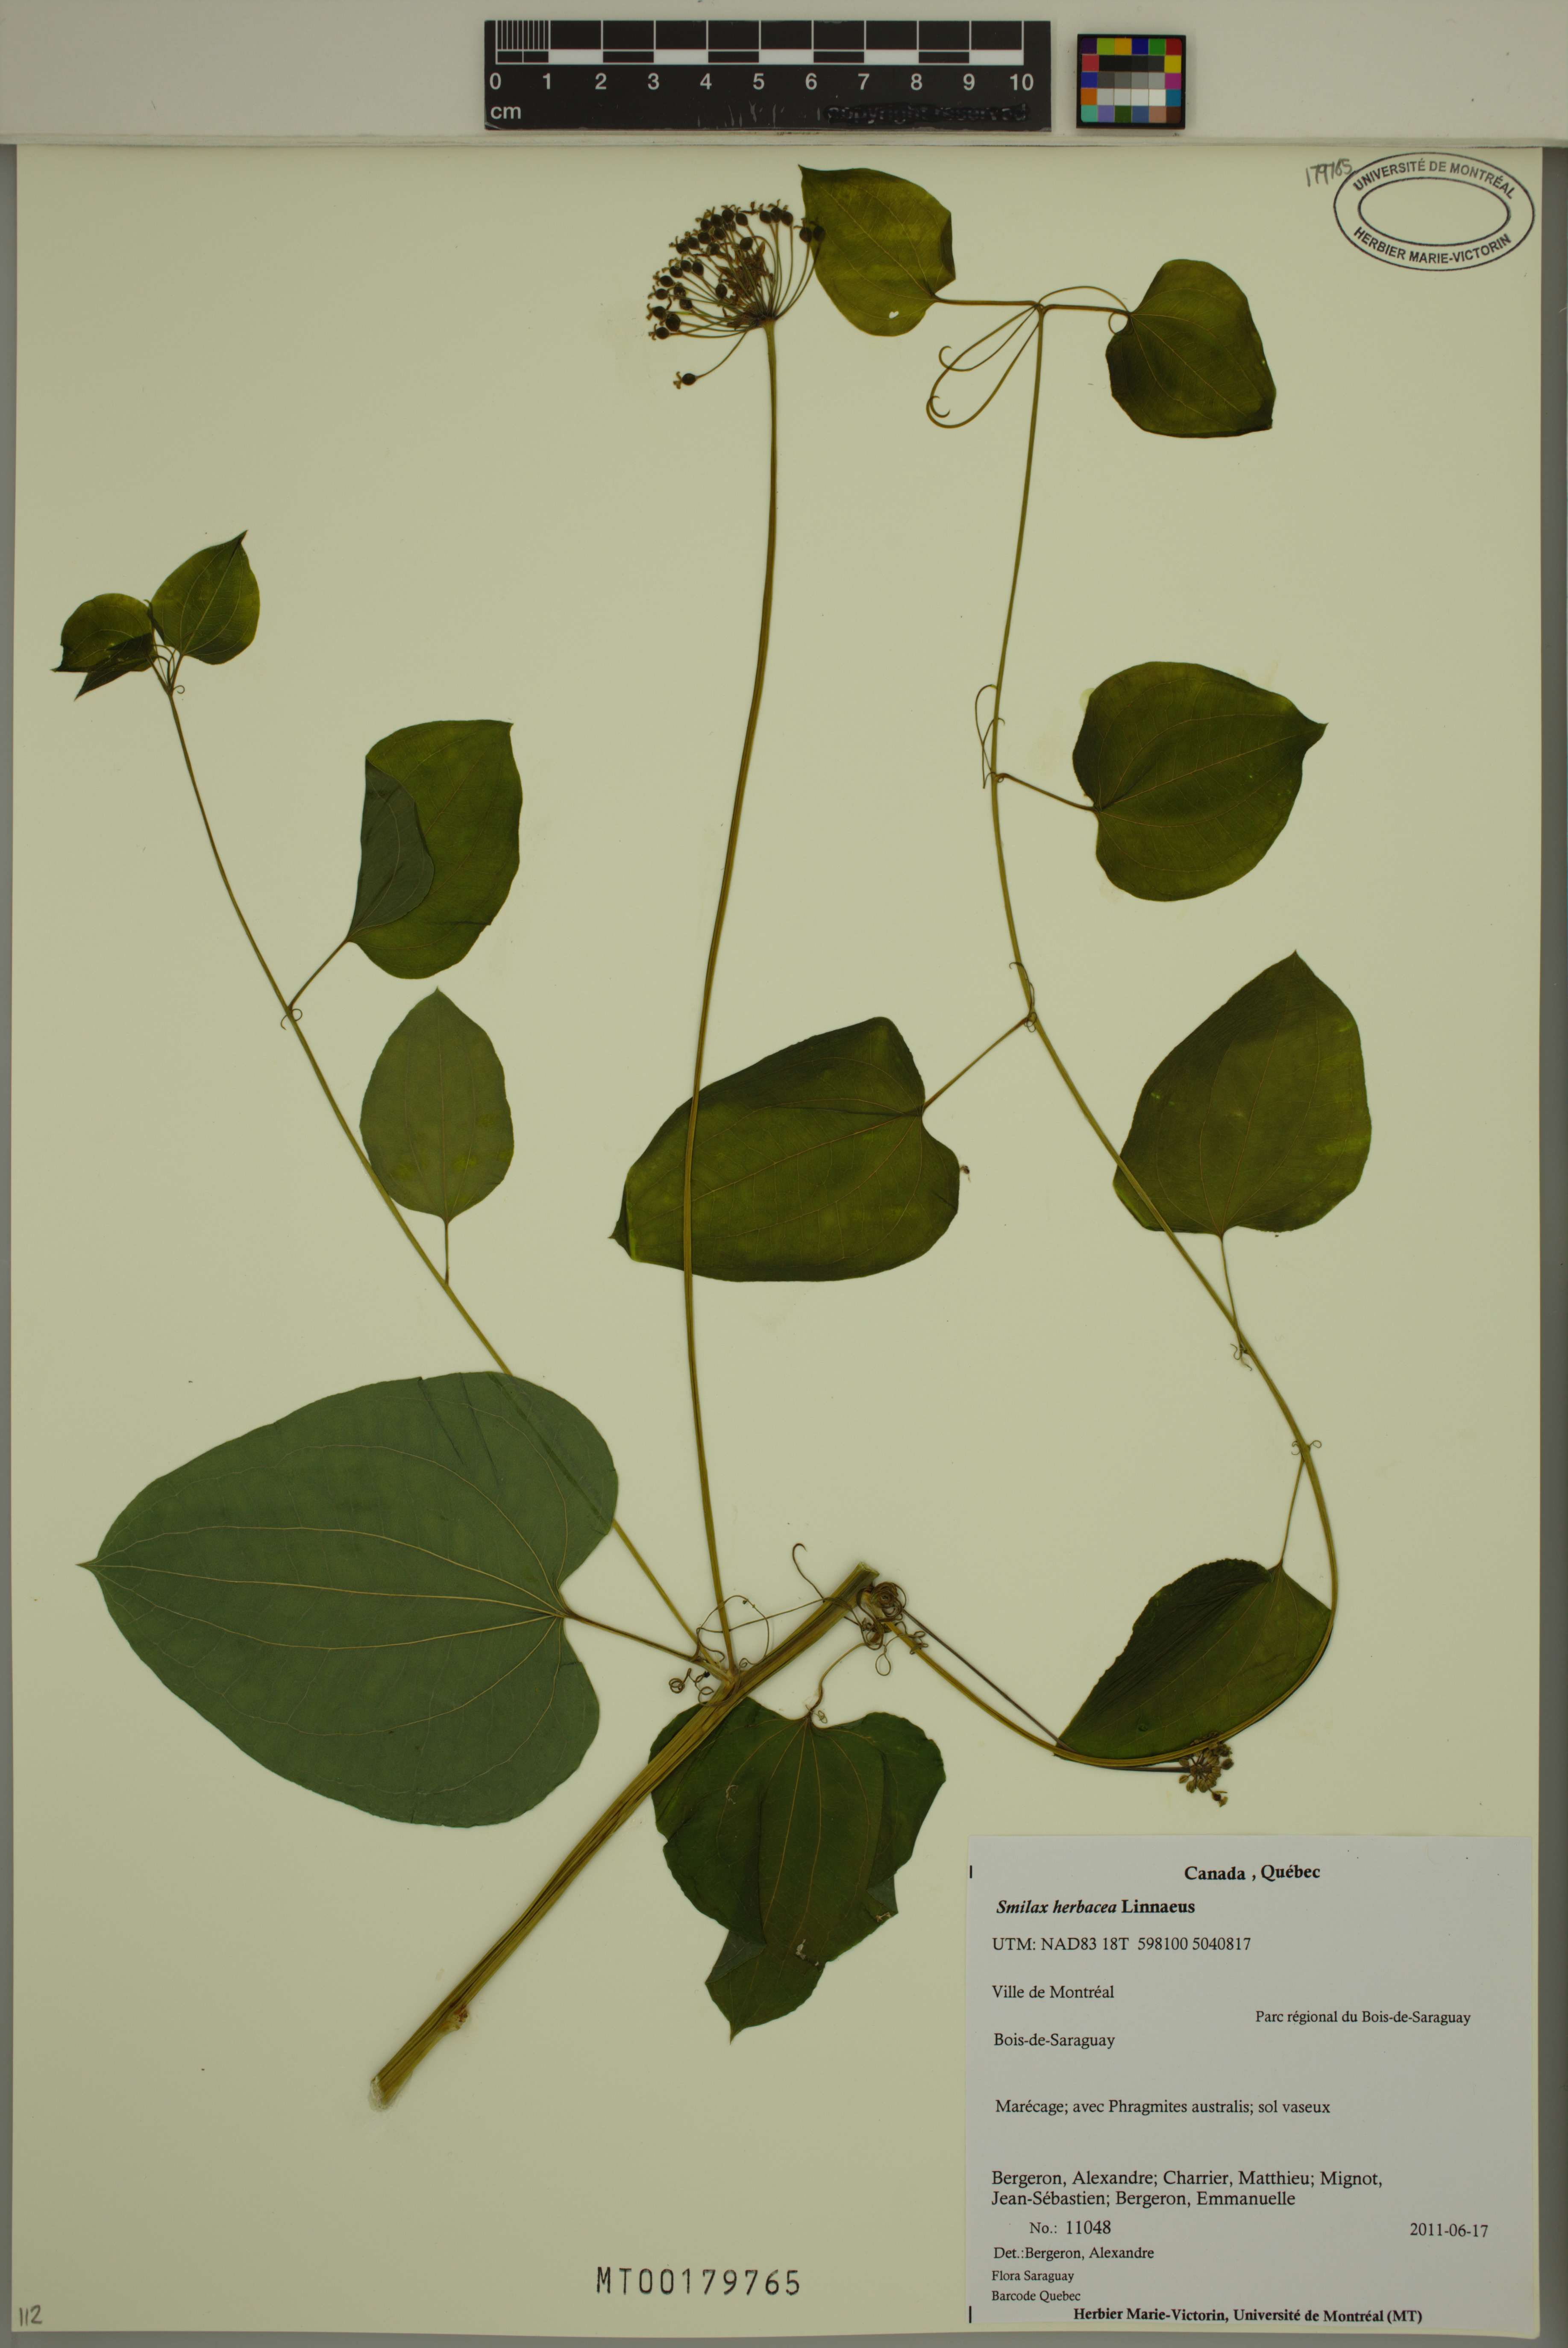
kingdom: Plantae
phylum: Tracheophyta
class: Liliopsida
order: Liliales
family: Smilacaceae
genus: Smilax
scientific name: Smilax herbacea
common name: Jacob's-ladder
